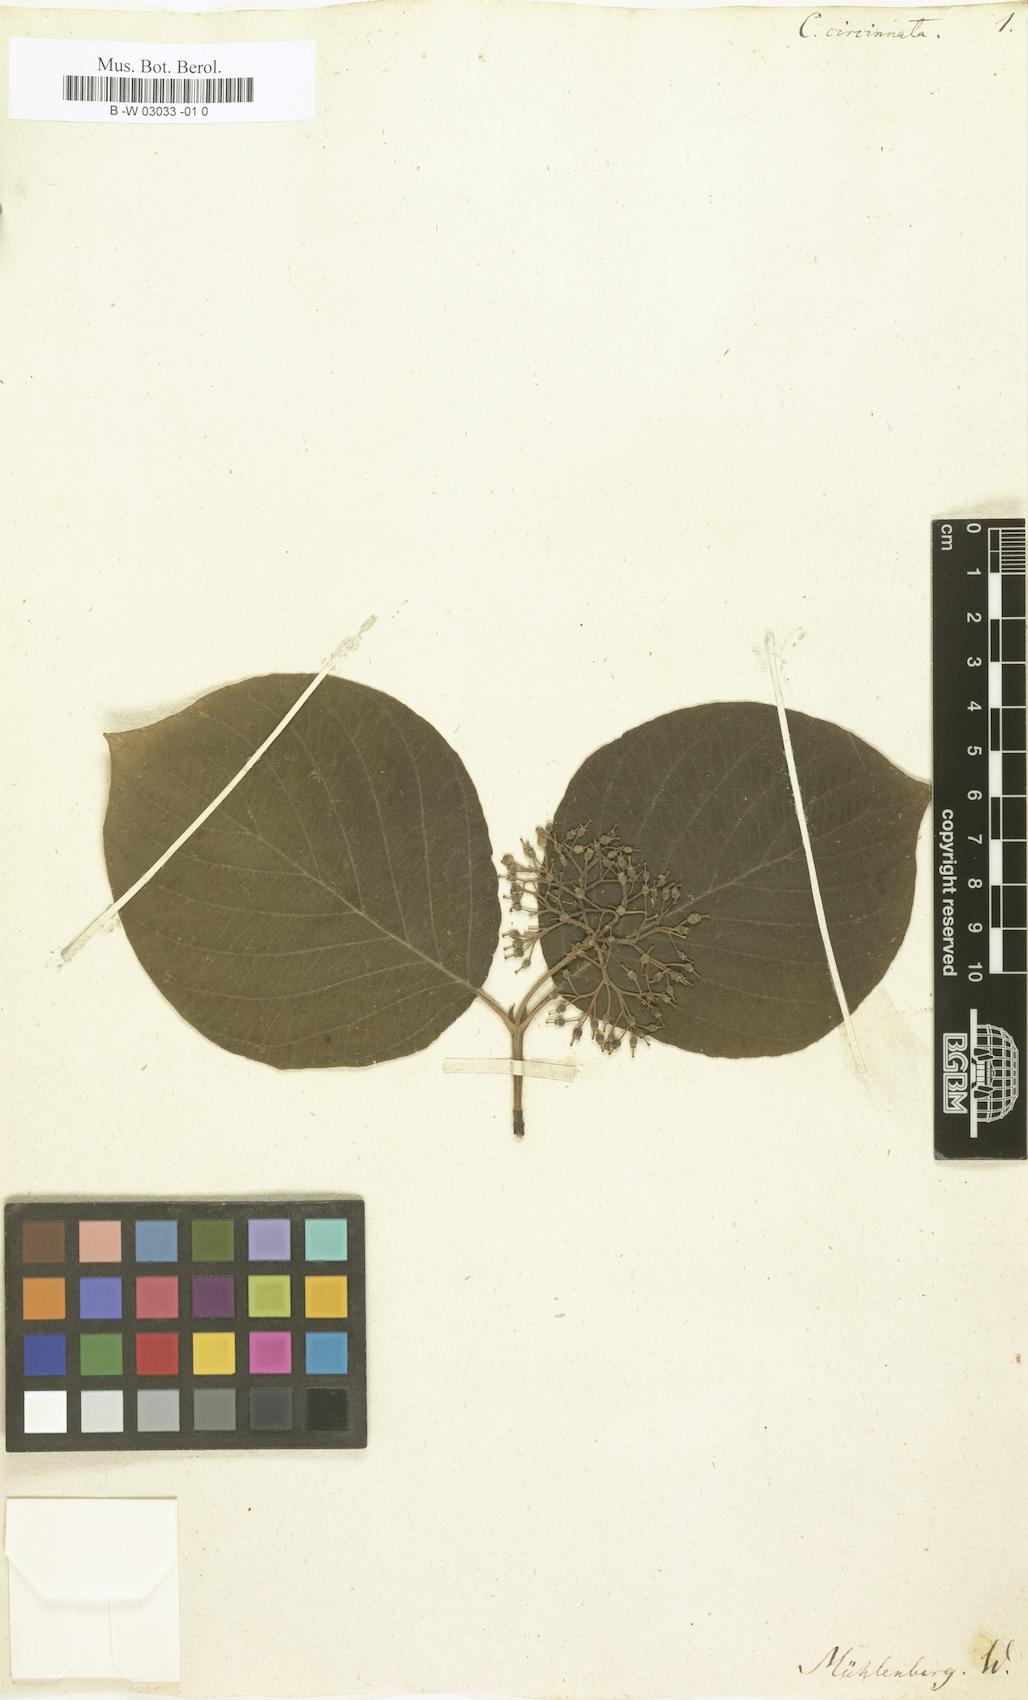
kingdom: Plantae
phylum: Tracheophyta
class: Magnoliopsida
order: Cornales
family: Cornaceae
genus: Cornus
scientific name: Cornus rugosa
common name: Round-leaf dogwood
